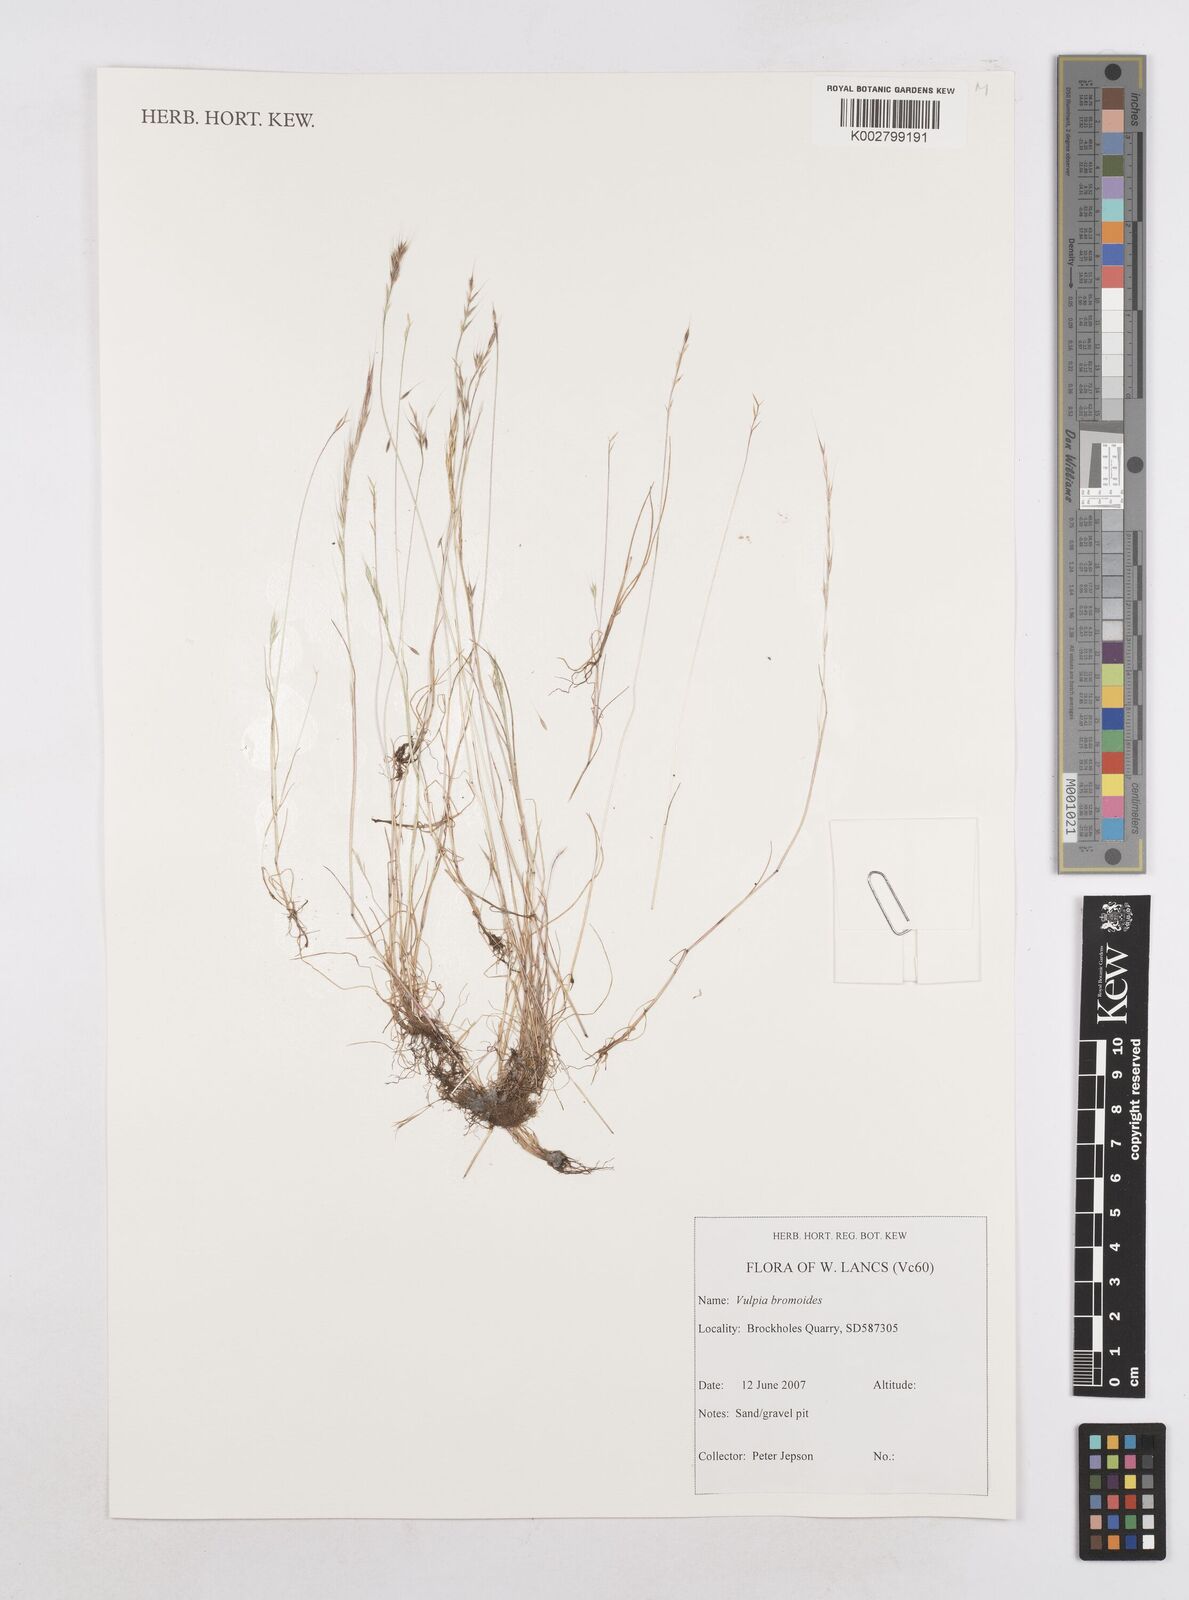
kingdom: Plantae
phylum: Tracheophyta
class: Liliopsida
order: Poales
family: Poaceae
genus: Festuca
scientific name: Festuca bromoides
